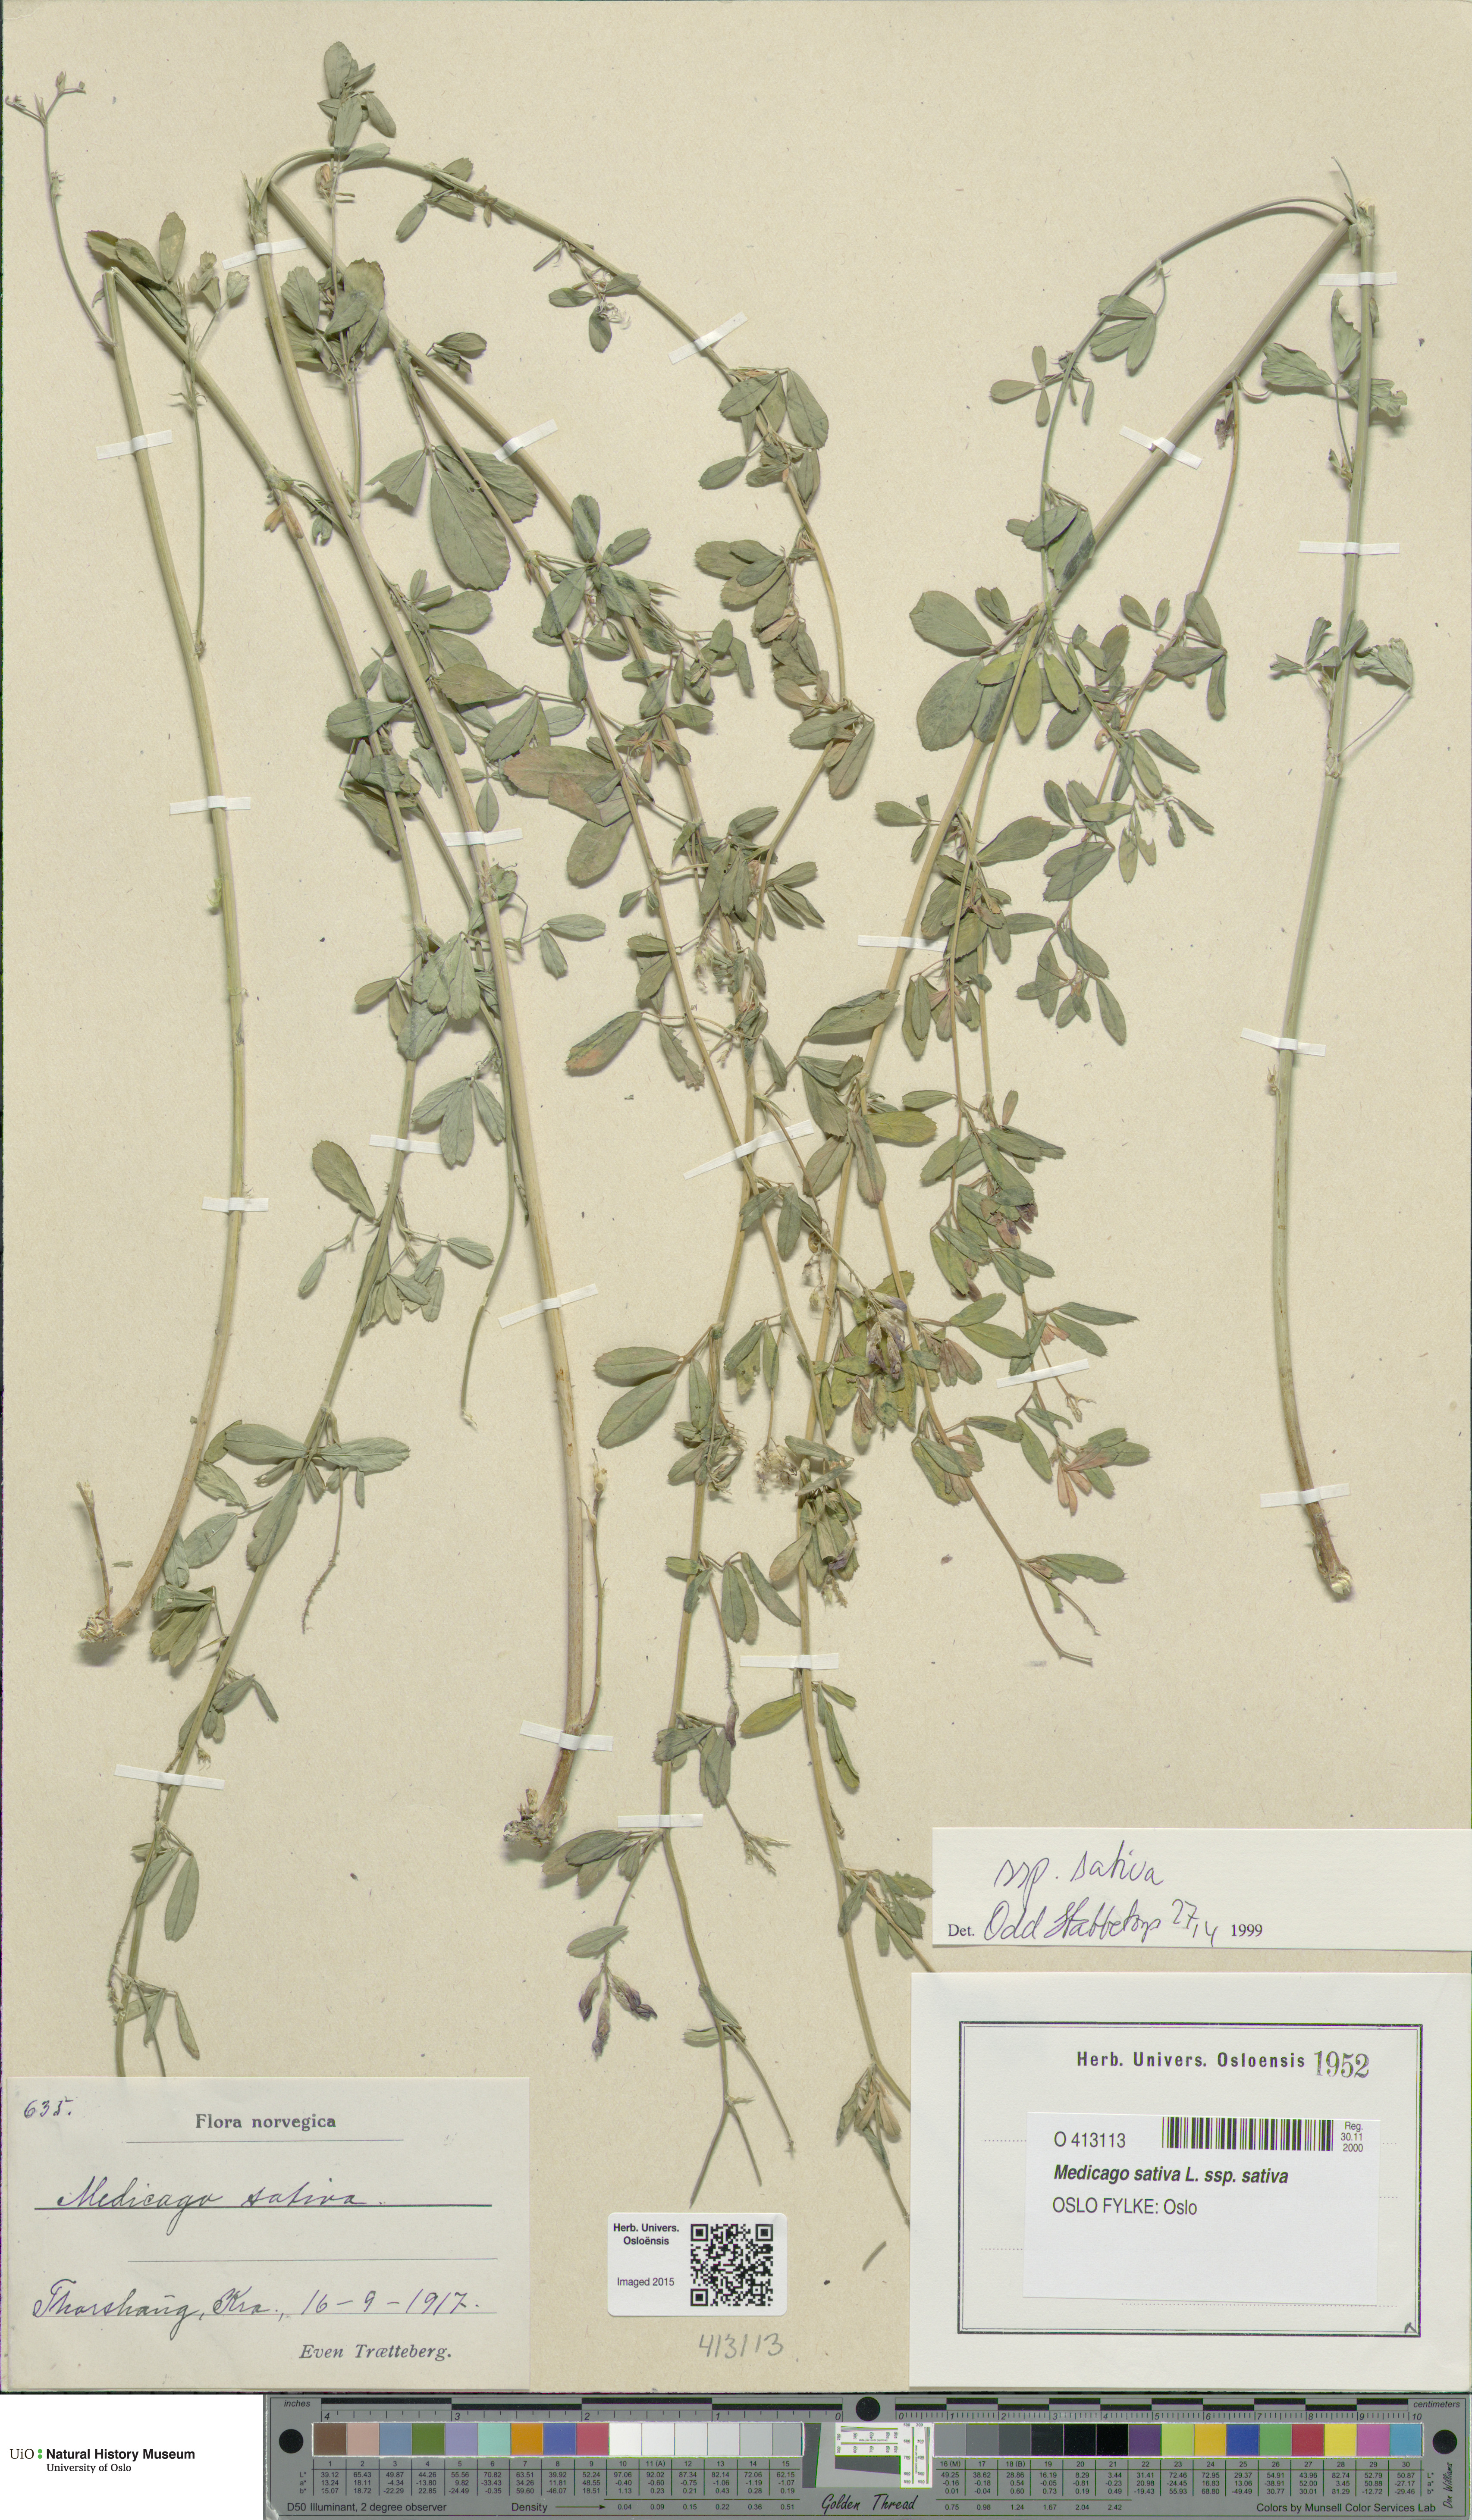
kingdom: Plantae
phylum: Tracheophyta
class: Magnoliopsida
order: Fabales
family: Fabaceae
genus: Medicago
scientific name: Medicago sativa
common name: Alfalfa
